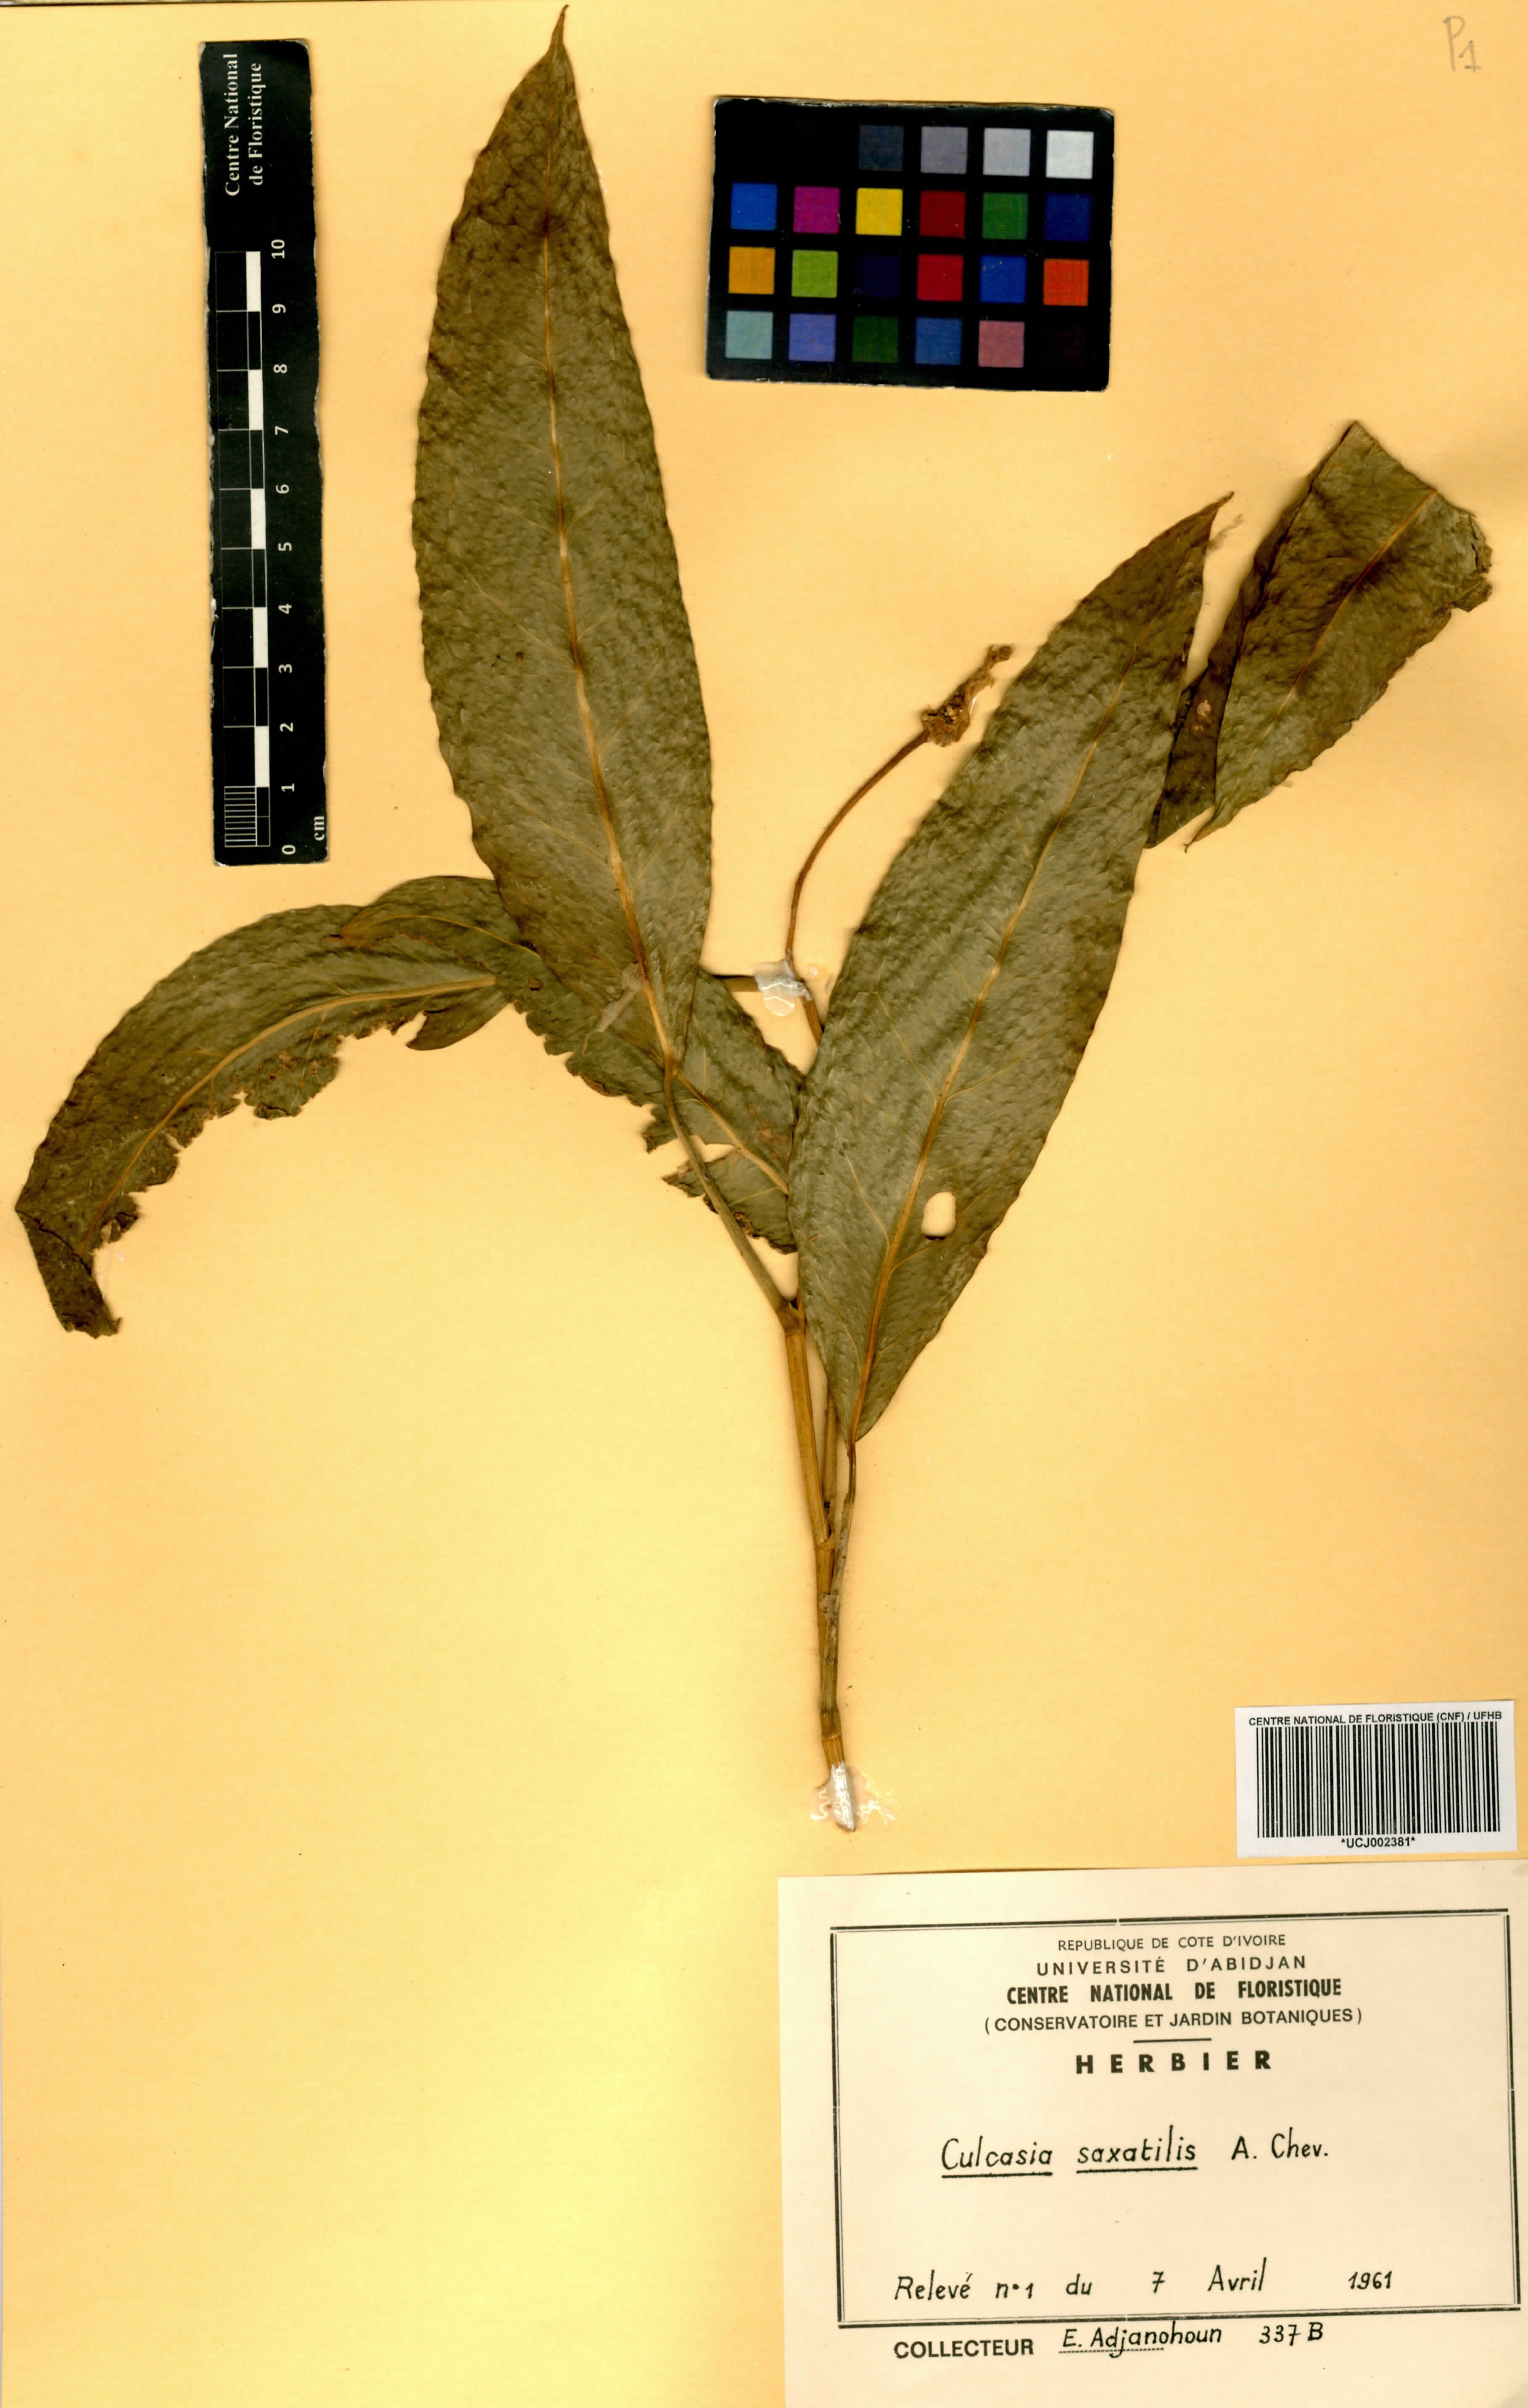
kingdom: Plantae
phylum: Tracheophyta
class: Liliopsida
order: Alismatales
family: Araceae
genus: Culcasia
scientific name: Culcasia scandens
